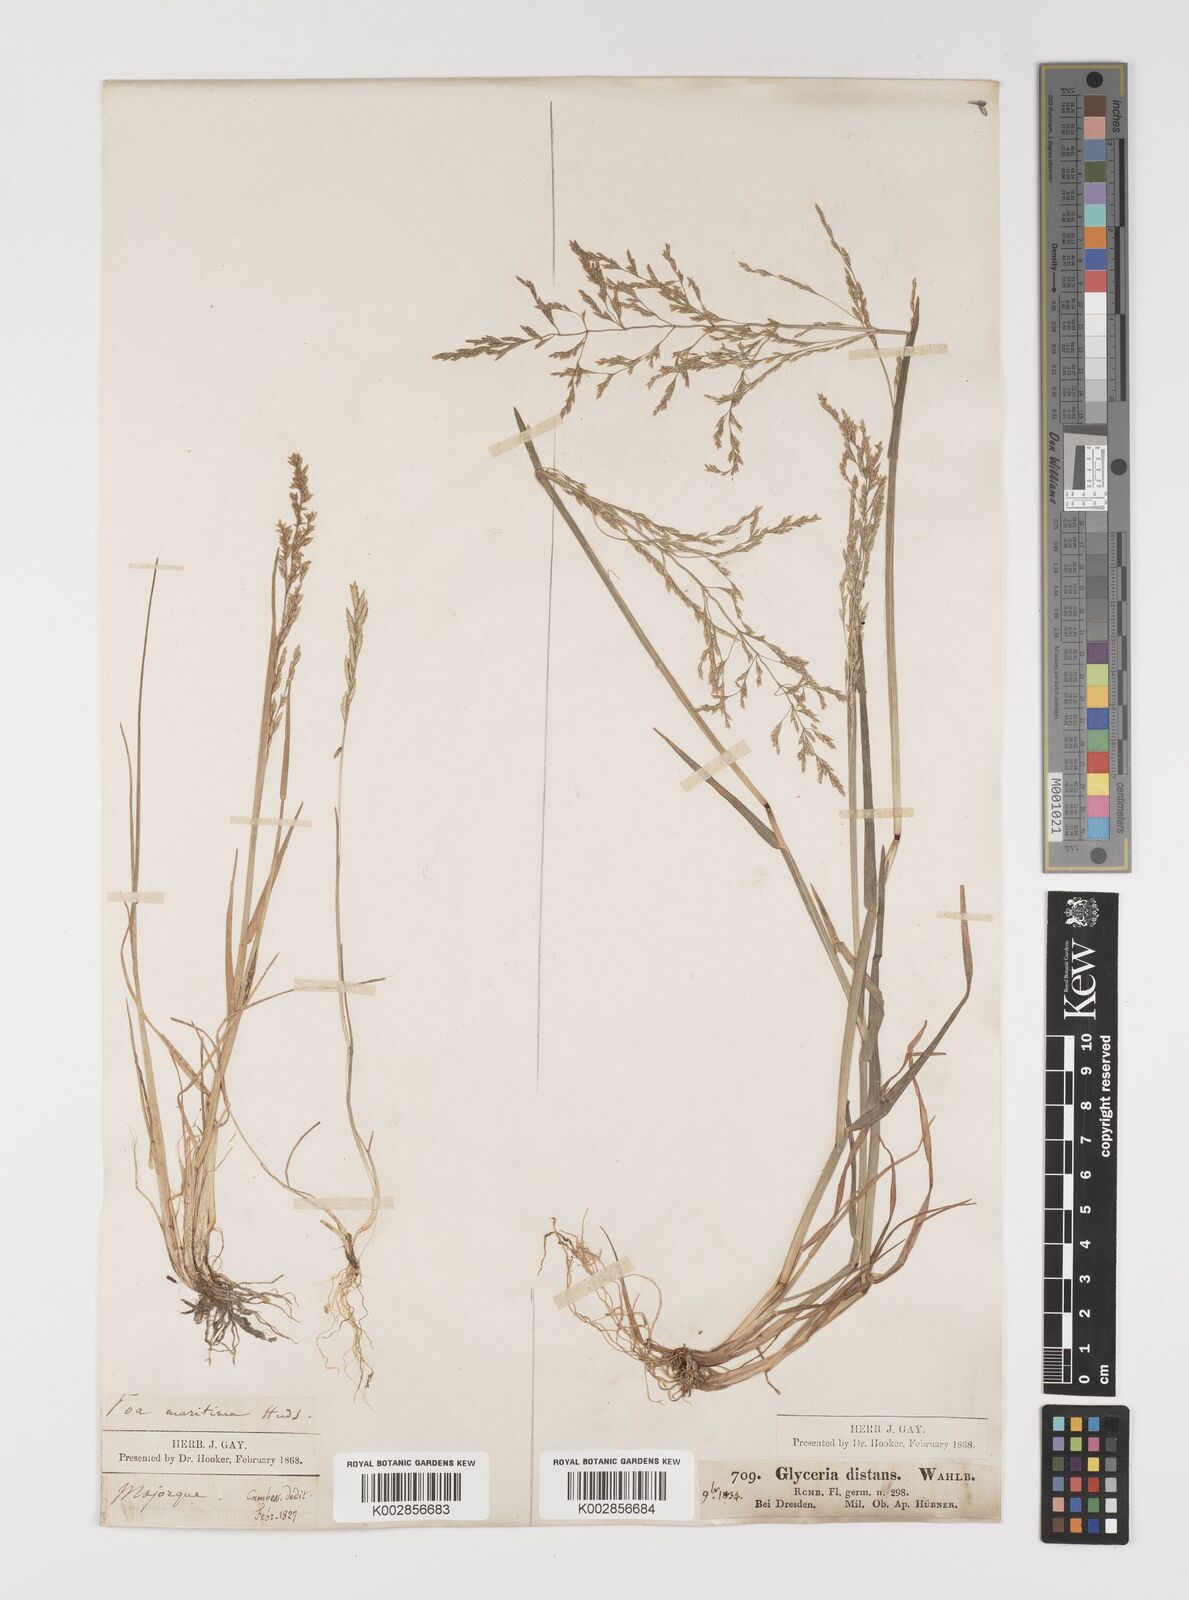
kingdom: Plantae
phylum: Tracheophyta
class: Liliopsida
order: Poales
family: Poaceae
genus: Puccinellia
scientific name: Puccinellia
